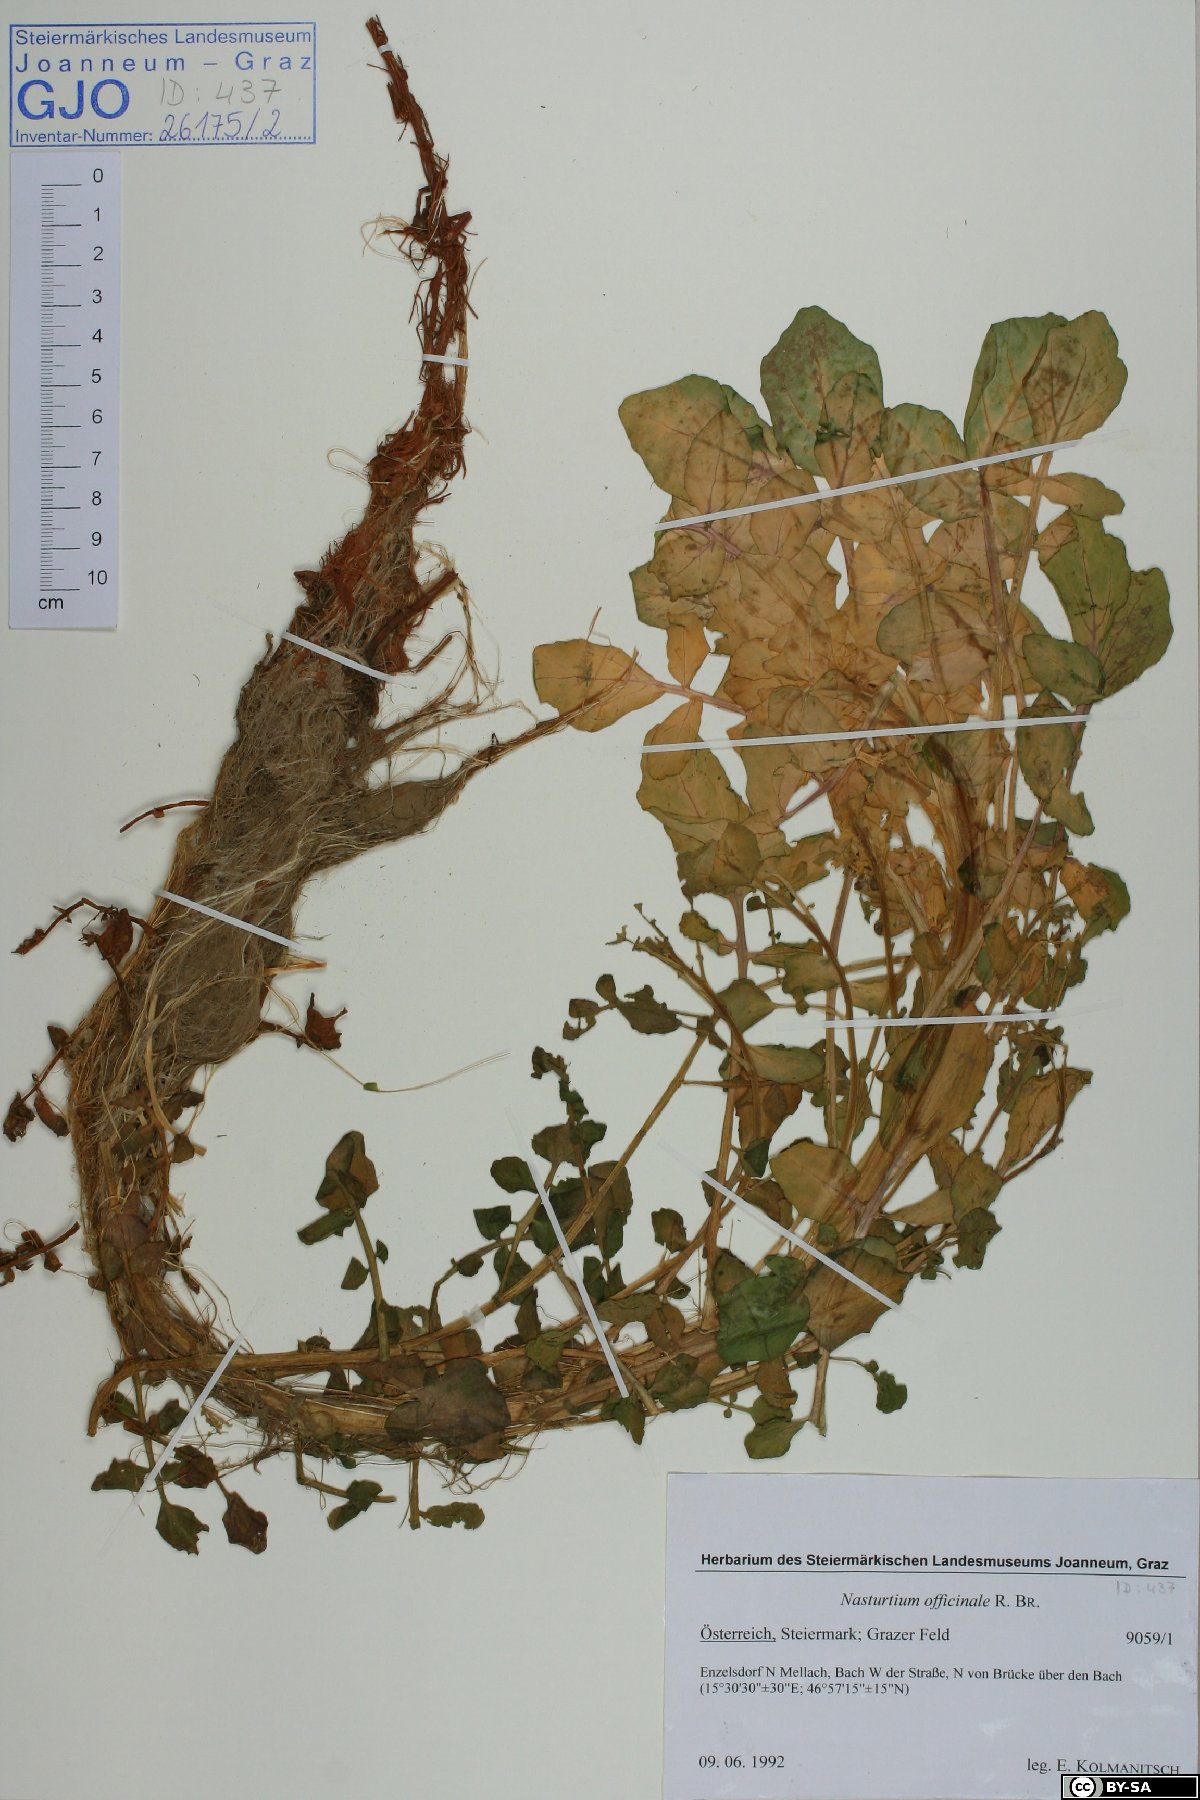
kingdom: Plantae
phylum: Tracheophyta
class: Magnoliopsida
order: Brassicales
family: Brassicaceae
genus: Nasturtium
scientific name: Nasturtium officinale
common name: Watercress
